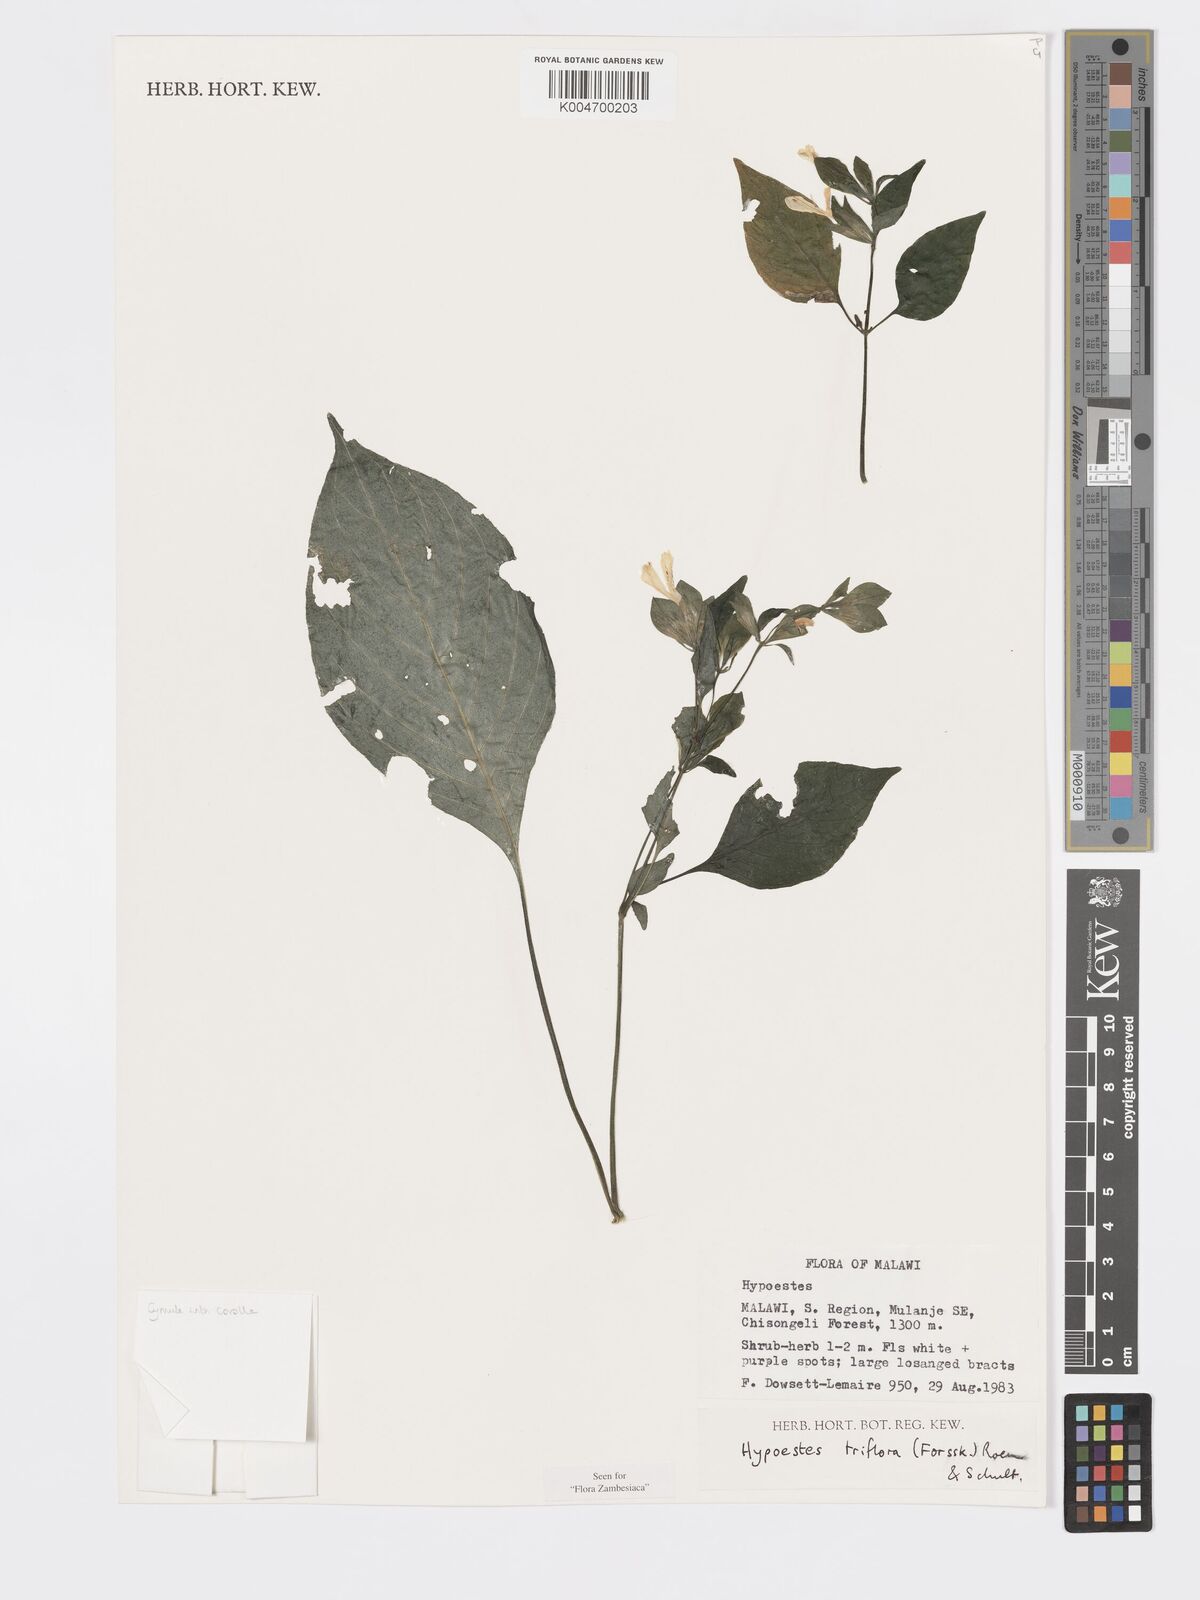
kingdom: Plantae
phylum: Tracheophyta
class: Magnoliopsida
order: Lamiales
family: Acanthaceae
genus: Hypoestes
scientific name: Hypoestes triflora
